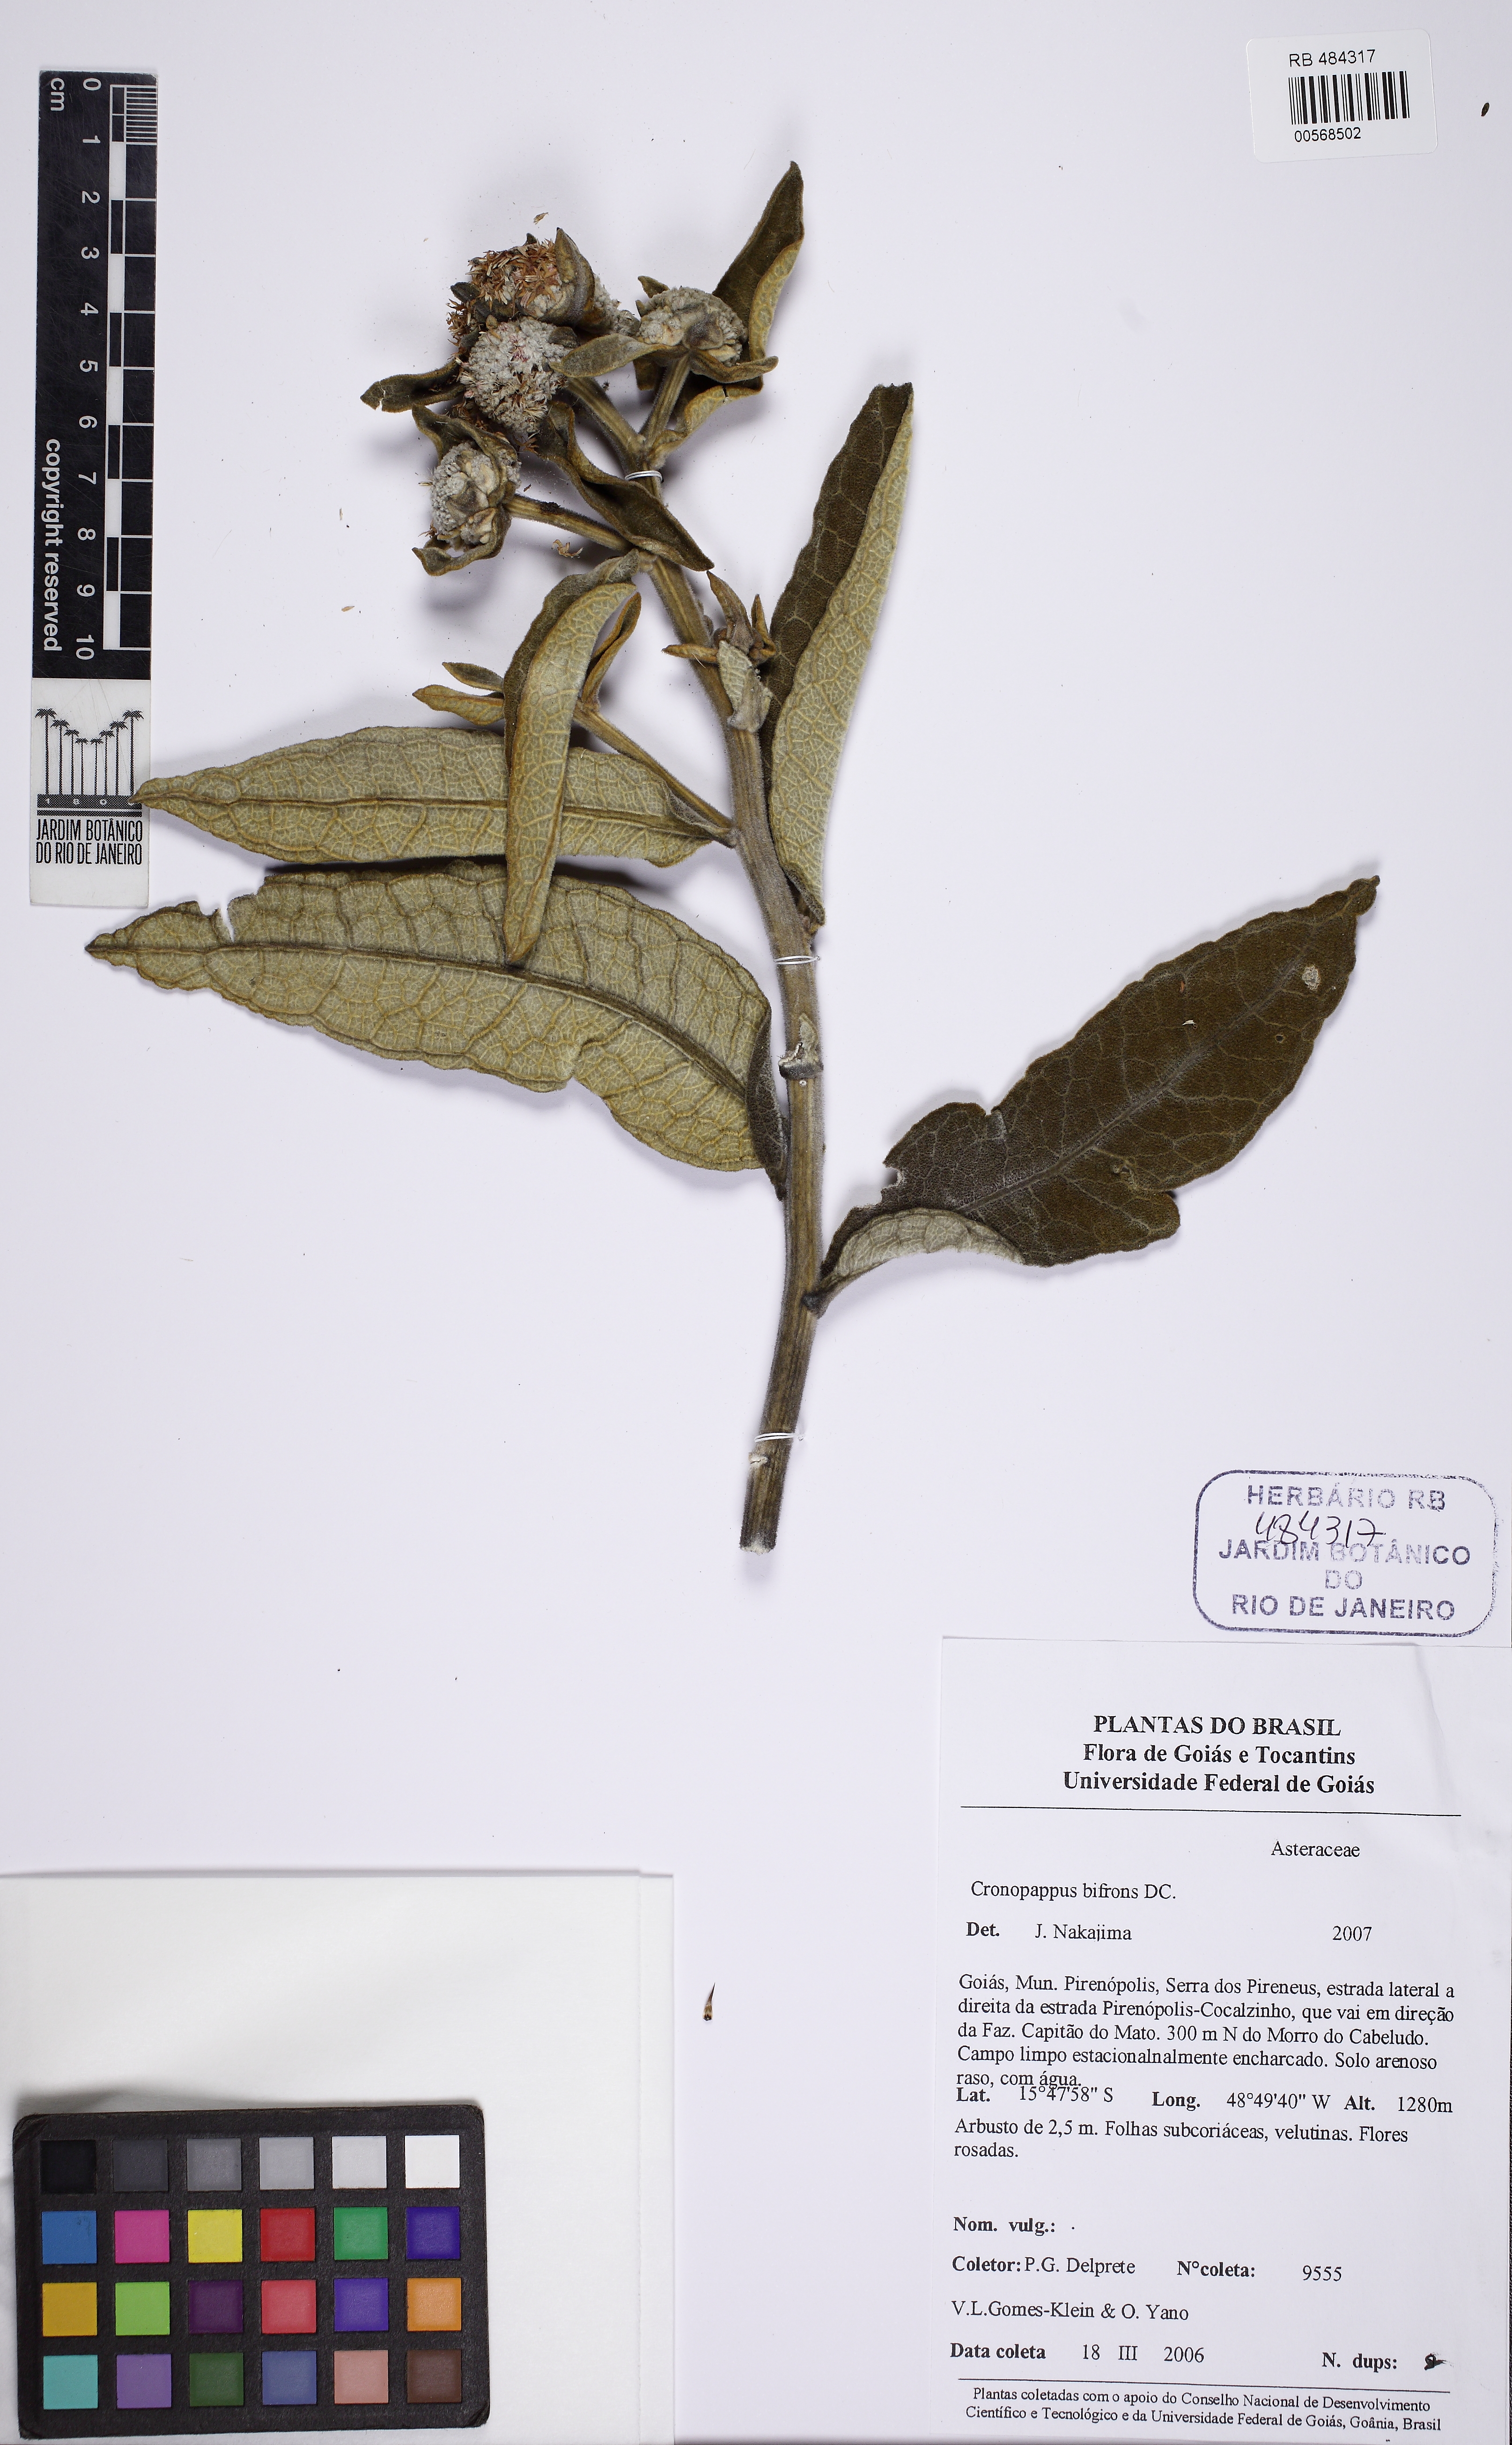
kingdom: Plantae
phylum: Tracheophyta
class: Magnoliopsida
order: Asterales
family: Asteraceae
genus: Chronopappus
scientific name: Chronopappus bifrons
